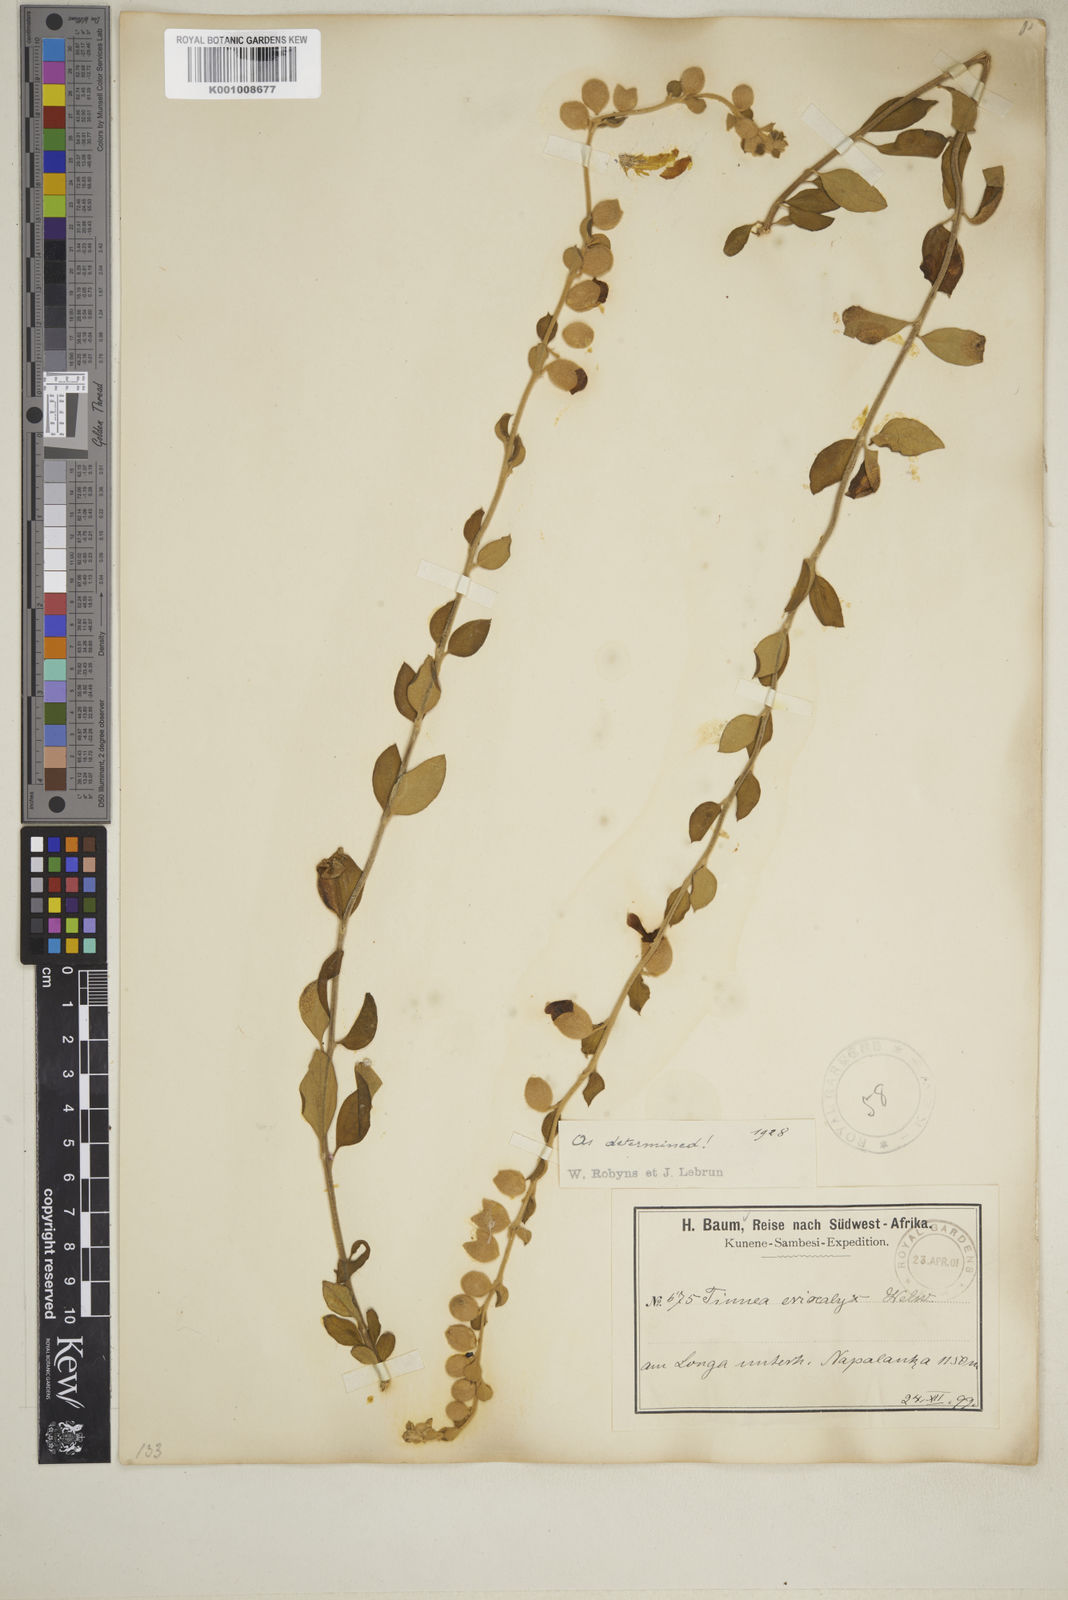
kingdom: Plantae
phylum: Tracheophyta
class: Magnoliopsida
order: Lamiales
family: Lamiaceae
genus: Tinnea
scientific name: Tinnea eriocalyx
